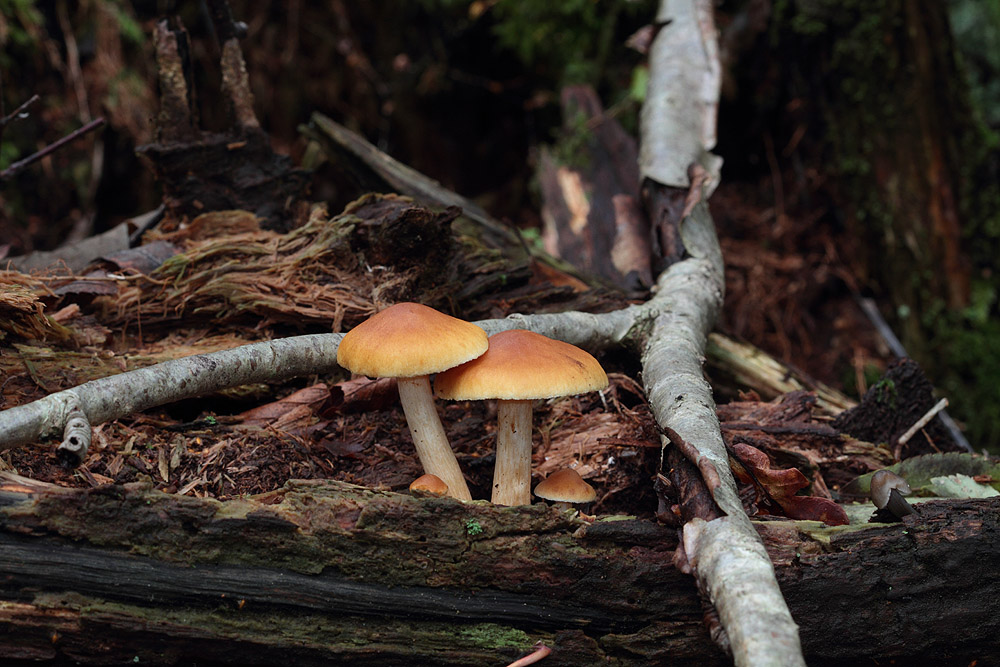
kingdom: Fungi
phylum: Basidiomycota
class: Agaricomycetes
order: Agaricales
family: Hymenogastraceae
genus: Gymnopilus
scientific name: Gymnopilus penetrans
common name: plettet flammehat
